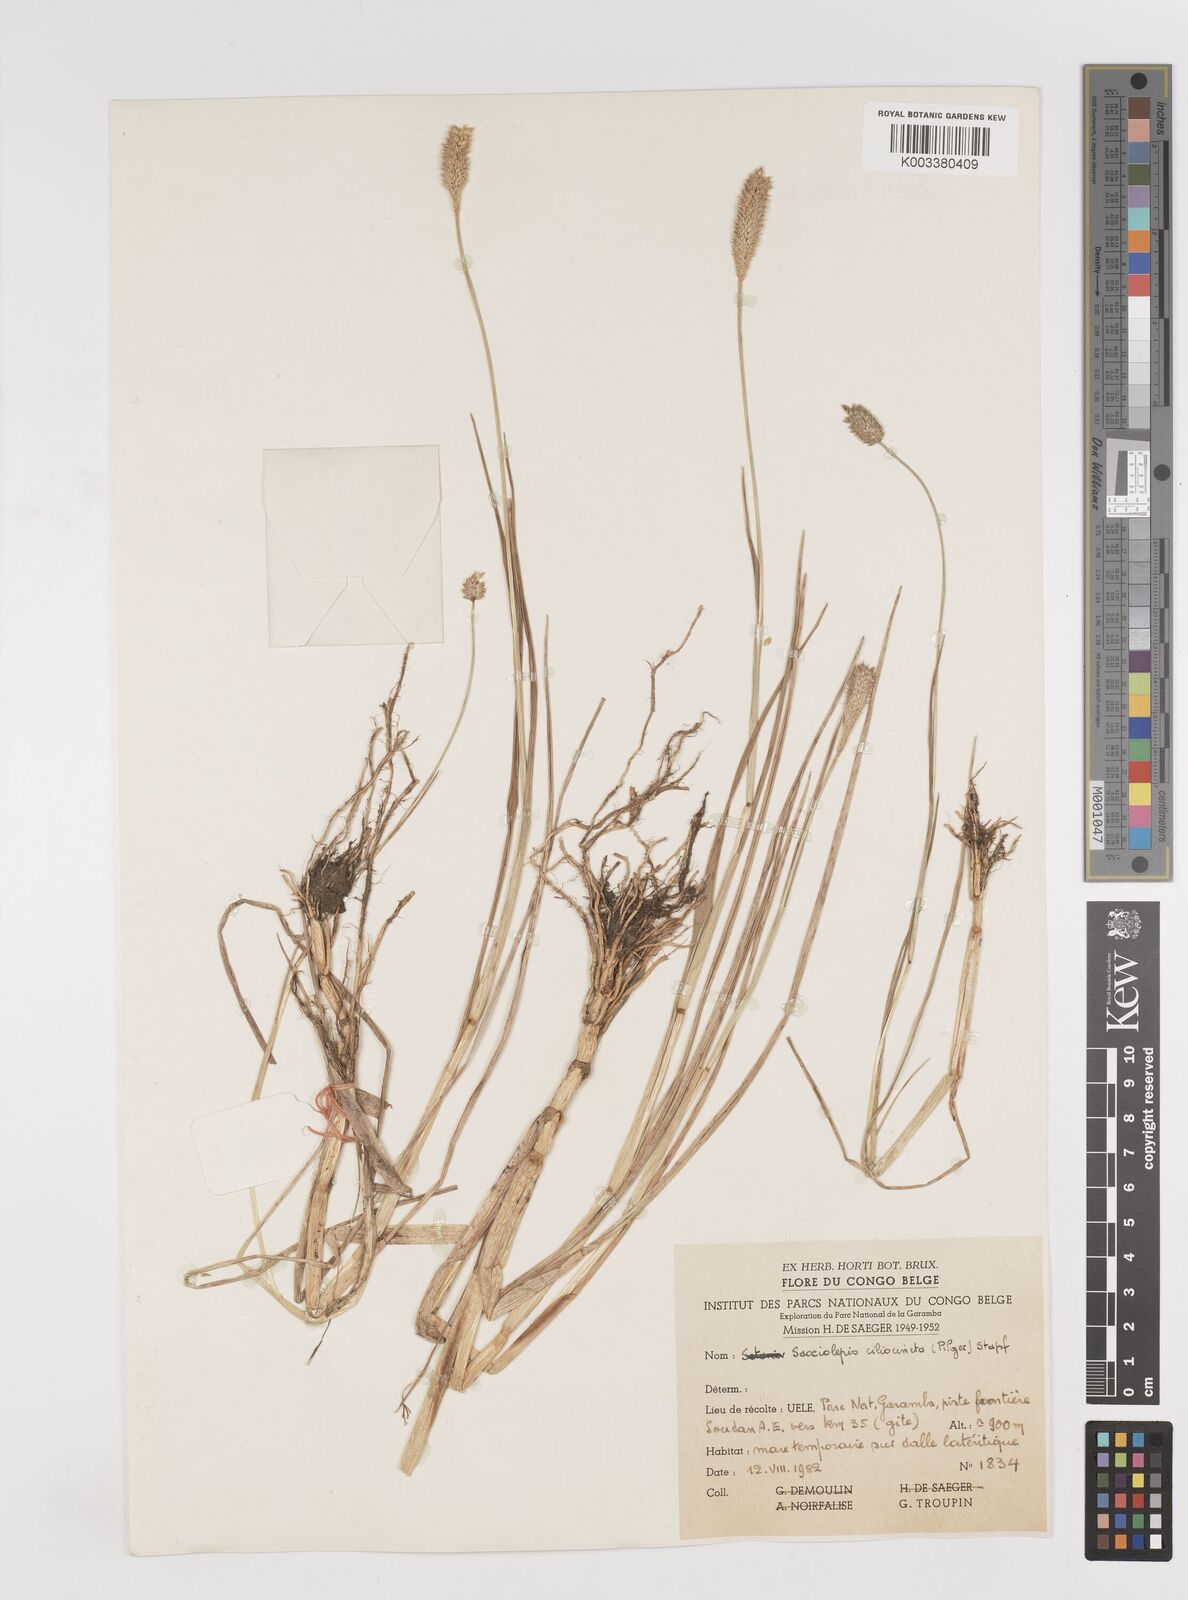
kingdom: Plantae
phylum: Tracheophyta
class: Liliopsida
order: Poales
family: Poaceae
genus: Sacciolepis
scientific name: Sacciolepis ciliocincta
